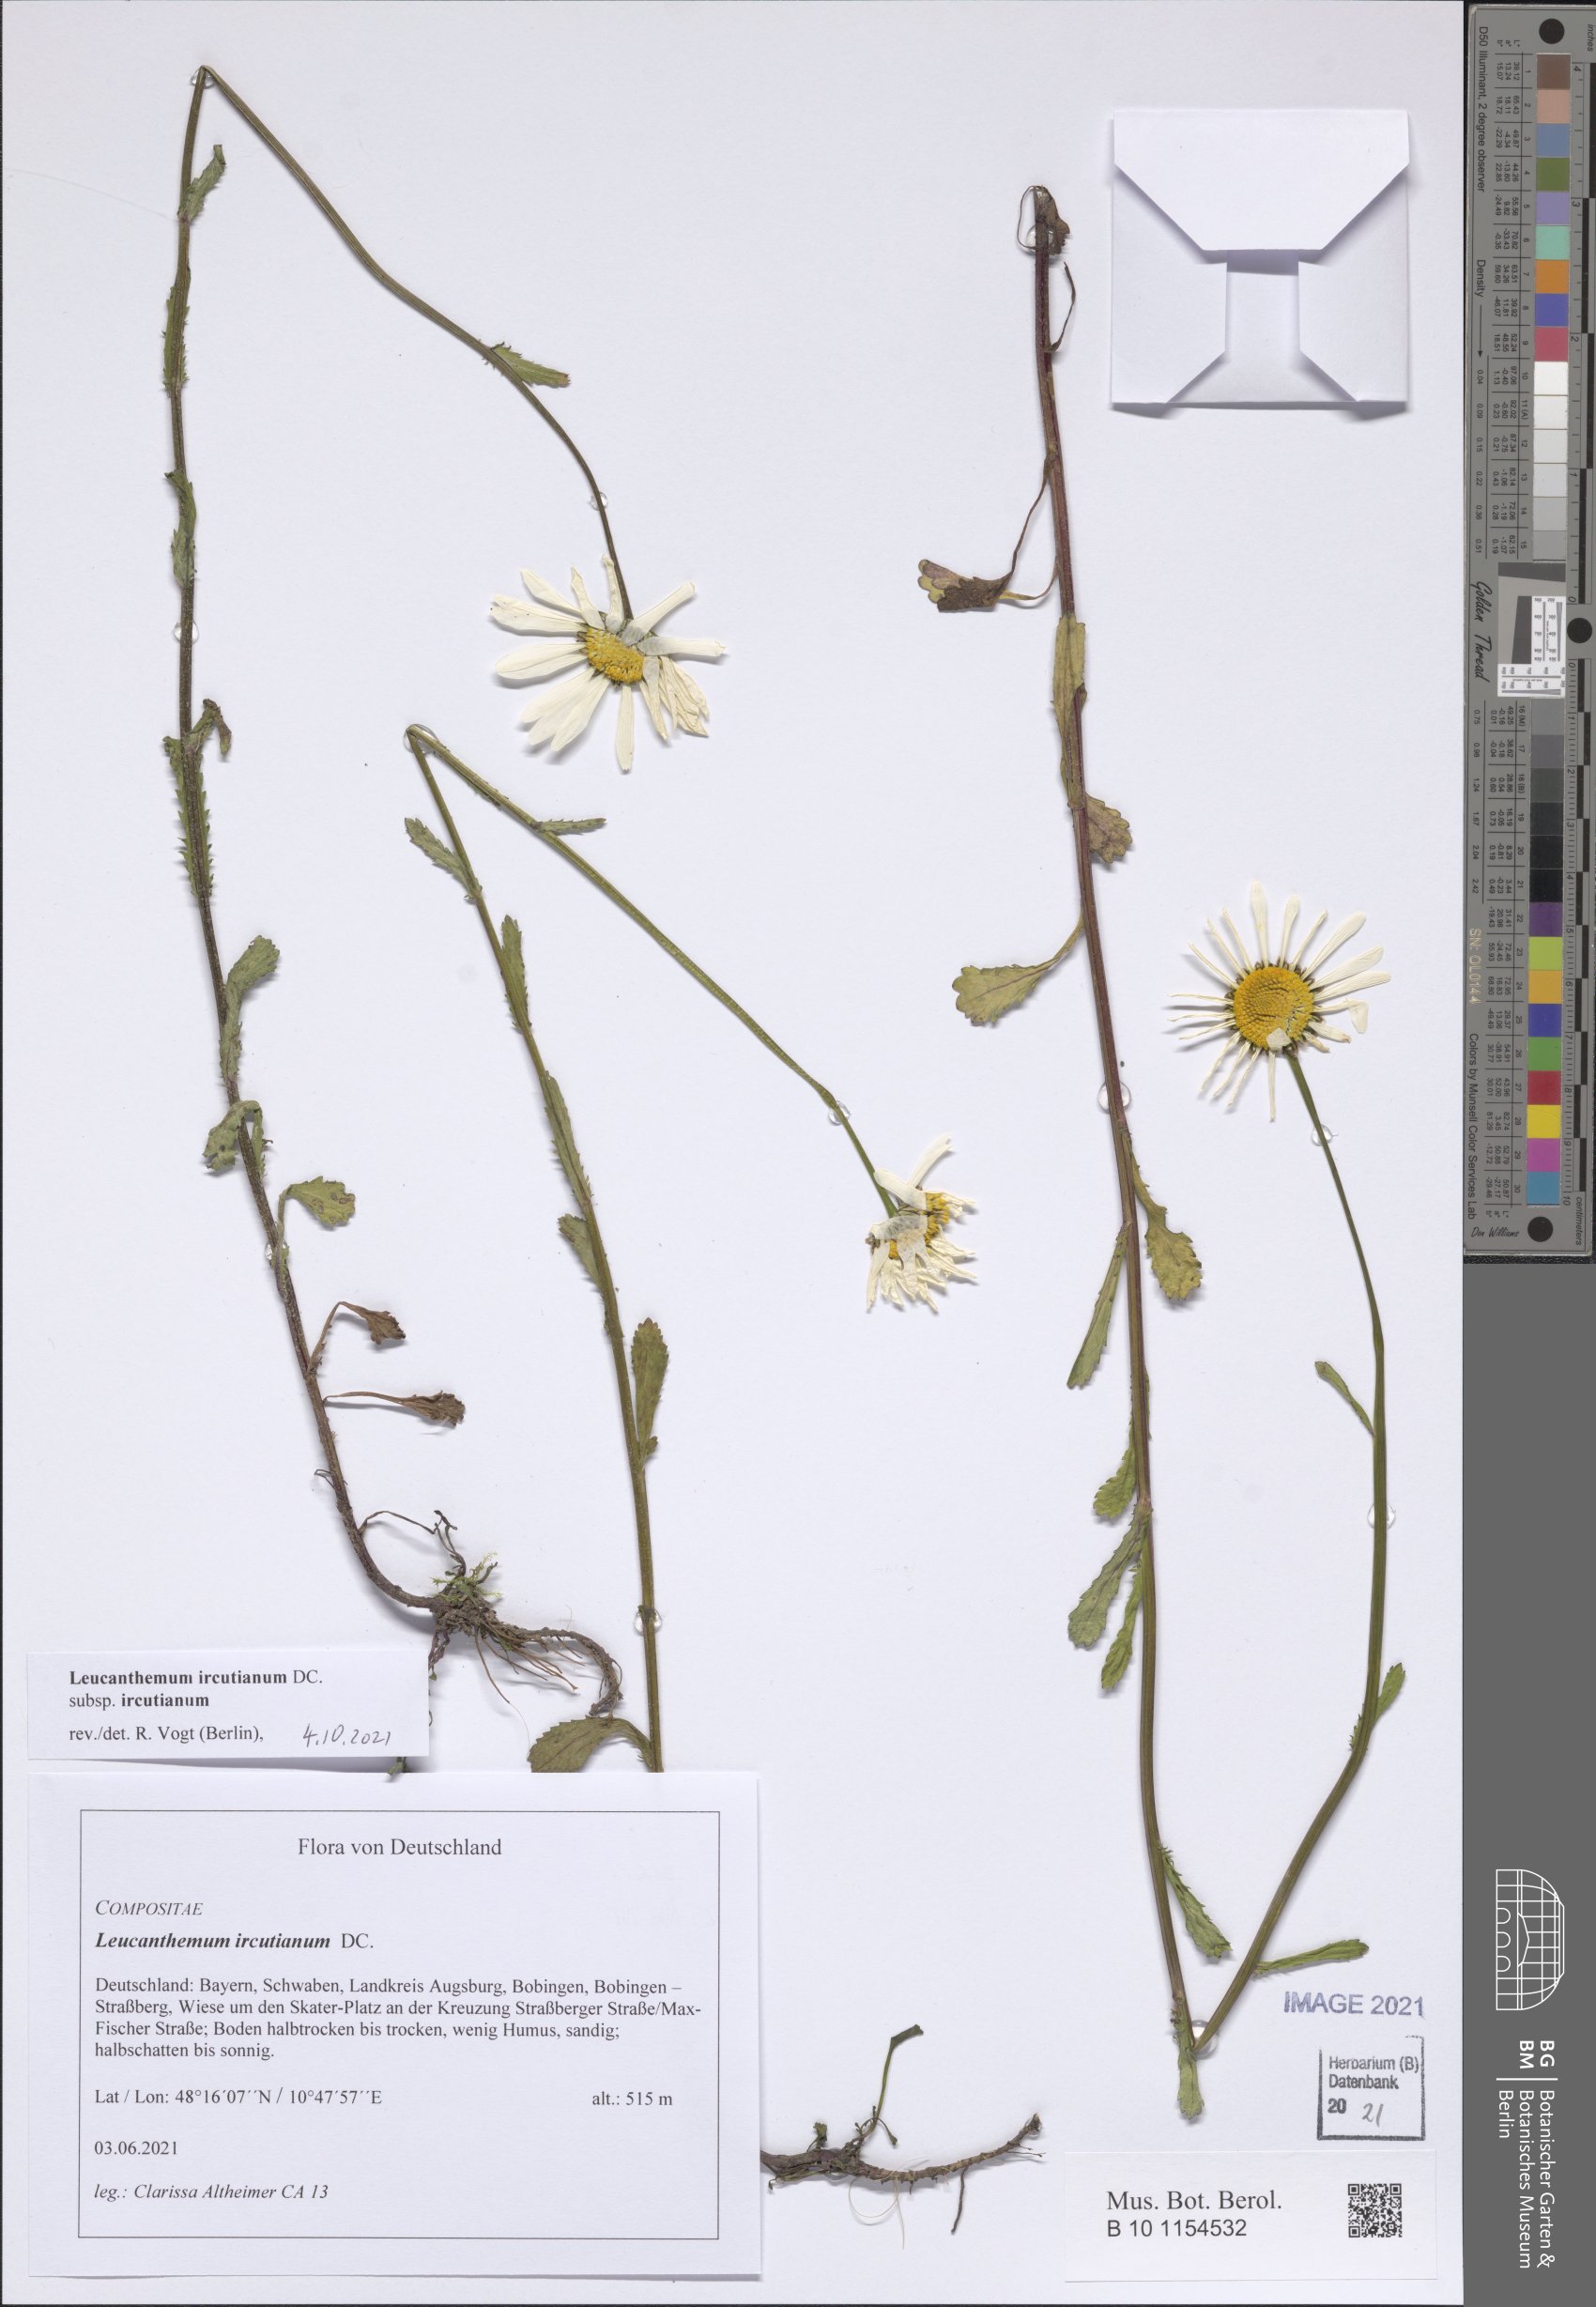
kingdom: Plantae
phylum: Tracheophyta
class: Magnoliopsida
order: Asterales
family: Asteraceae
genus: Leucanthemum
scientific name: Leucanthemum ircutianum
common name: Daisy
